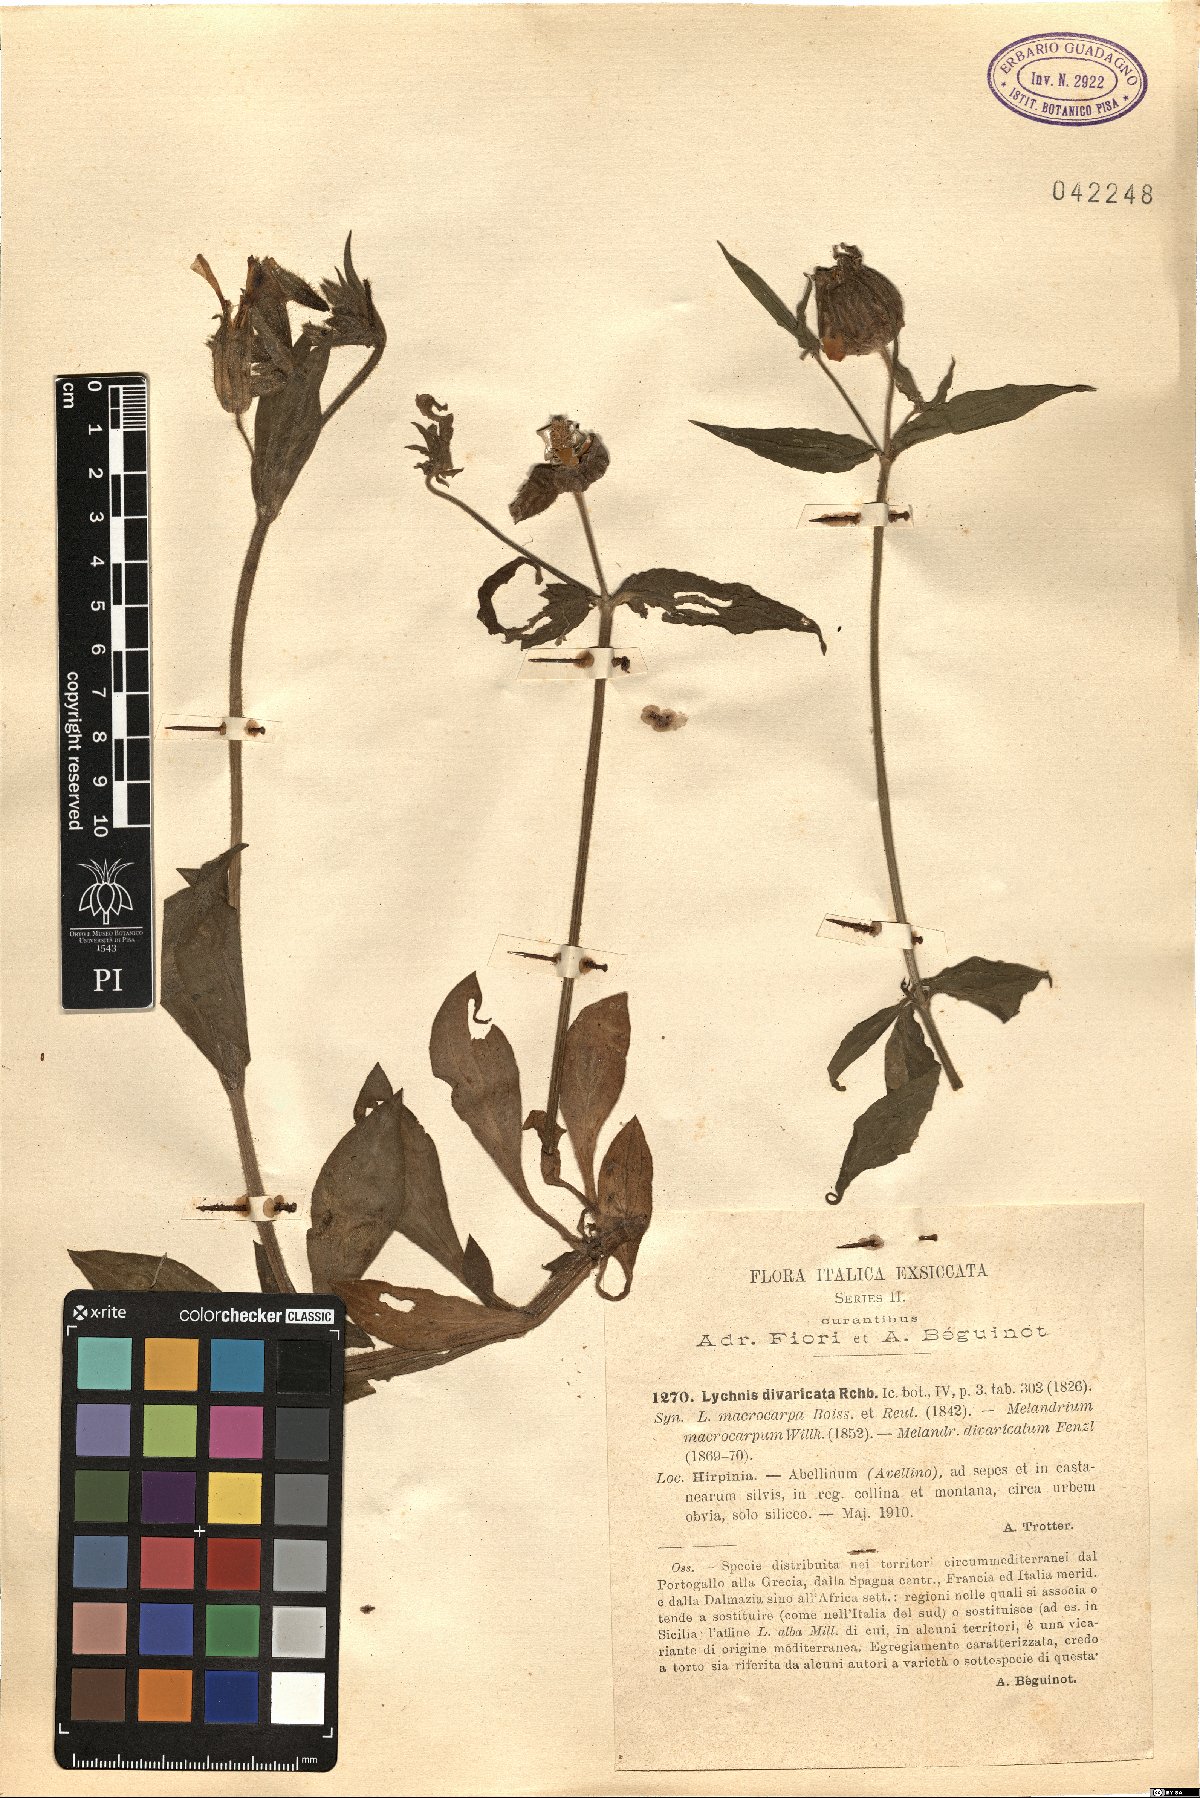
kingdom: Plantae
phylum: Tracheophyta
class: Magnoliopsida
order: Caryophyllales
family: Caryophyllaceae
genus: Silene
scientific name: Silene latifolia
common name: White campion
